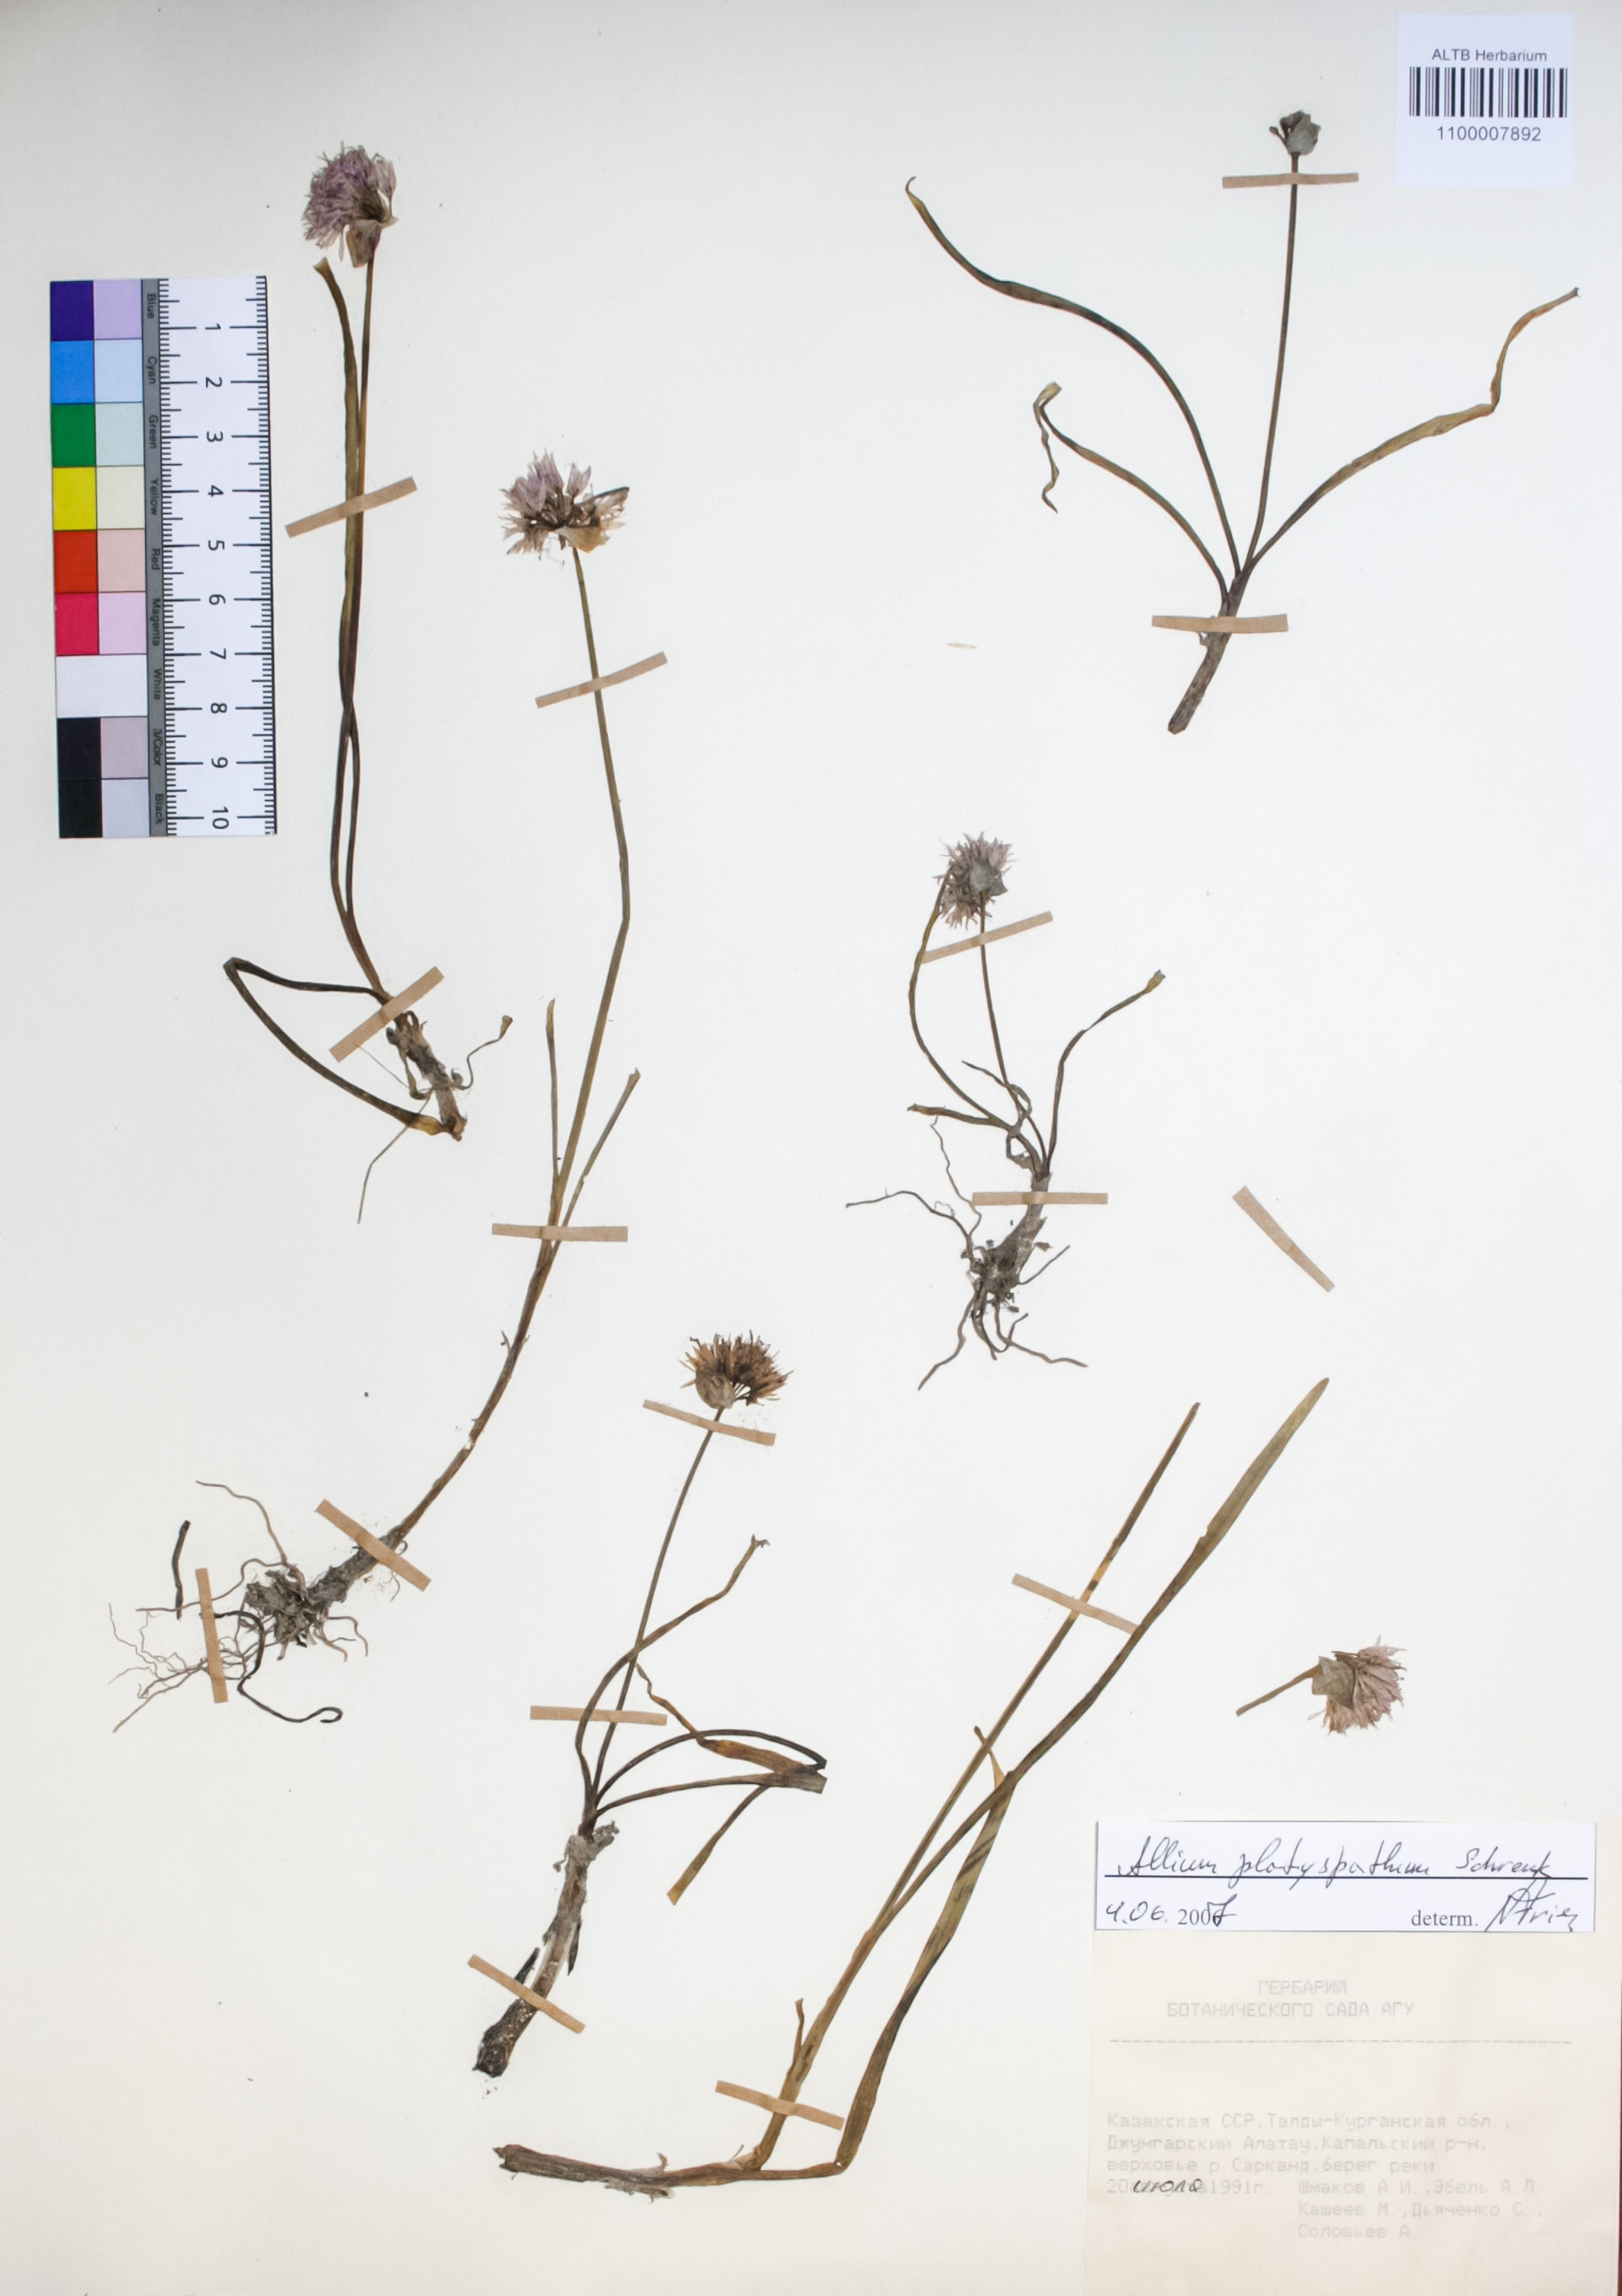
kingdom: Plantae
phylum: Tracheophyta
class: Liliopsida
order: Asparagales
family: Amaryllidaceae
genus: Allium
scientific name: Allium platyspathum
